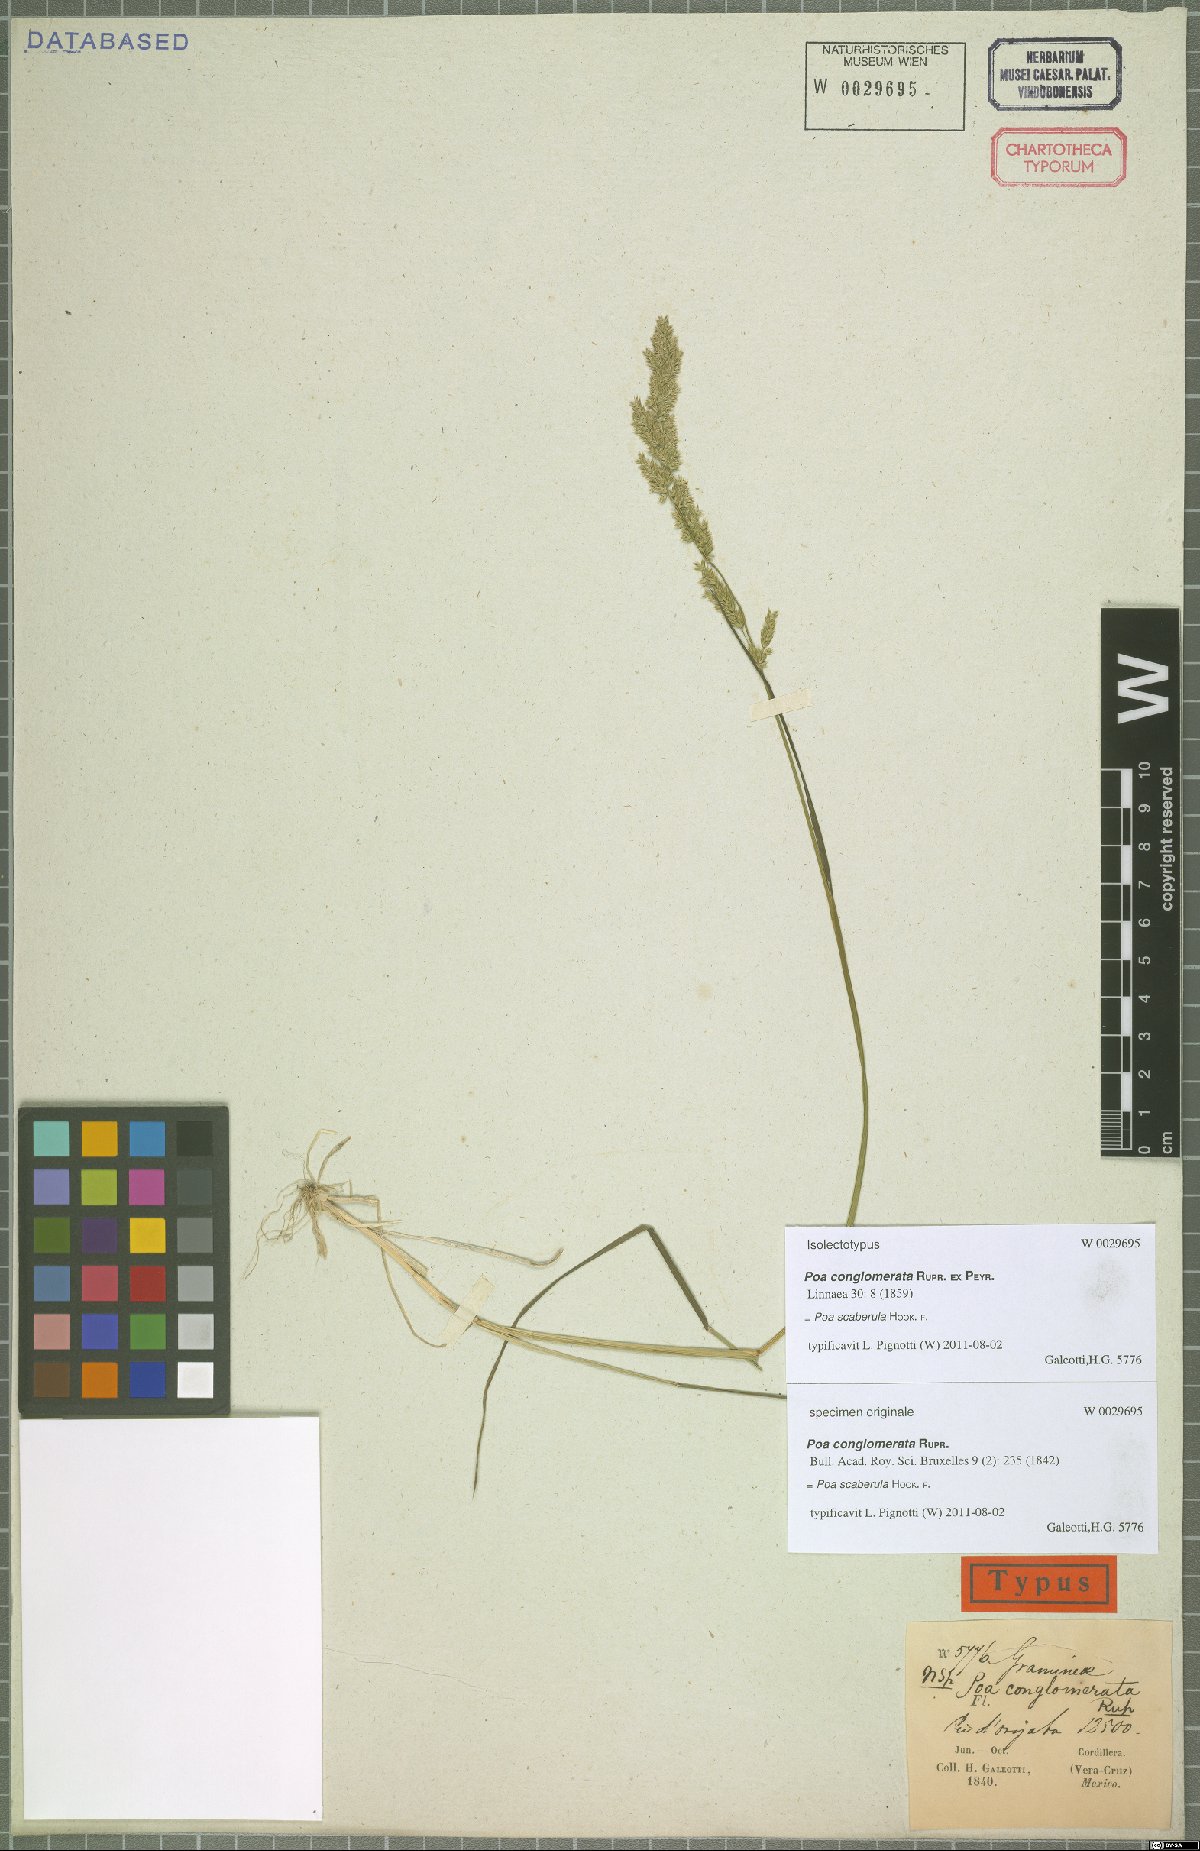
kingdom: Plantae
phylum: Tracheophyta
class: Liliopsida
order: Poales
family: Poaceae
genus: Poa
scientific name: Poa scaberula
